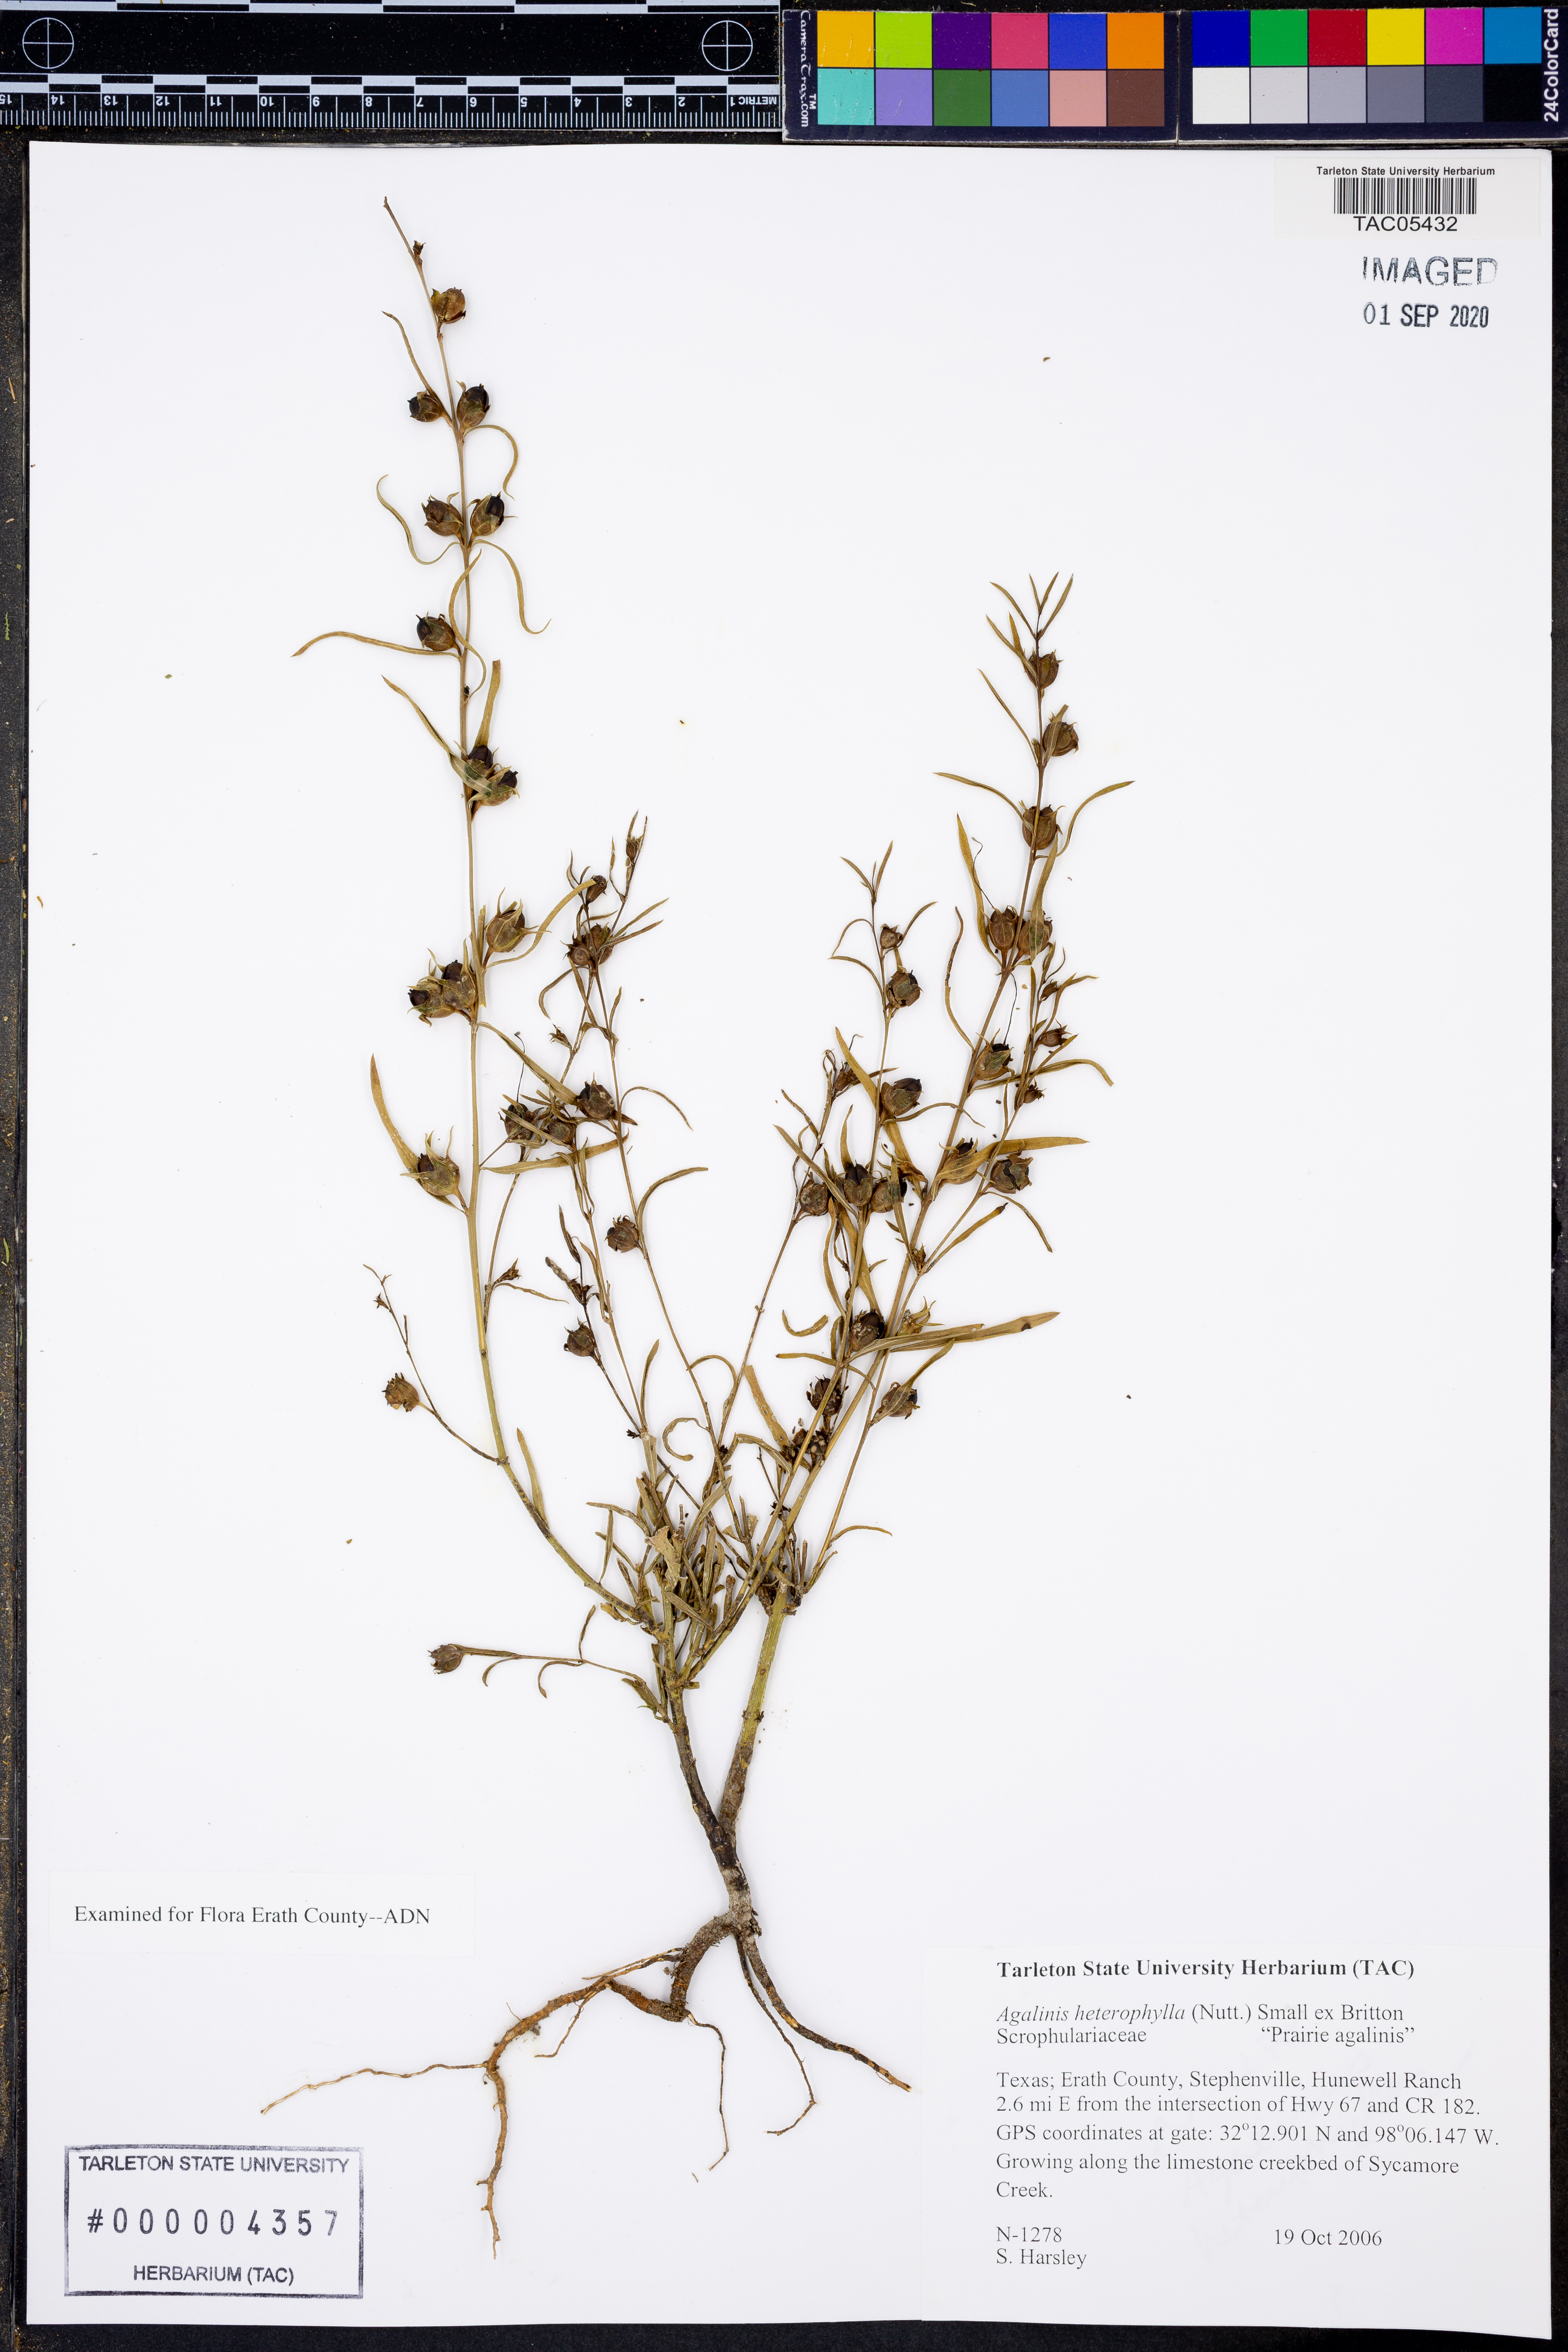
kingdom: Plantae
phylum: Tracheophyta
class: Magnoliopsida
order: Lamiales
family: Orobanchaceae
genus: Agalinis
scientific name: Agalinis heterophylla
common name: Prairie agalinis
